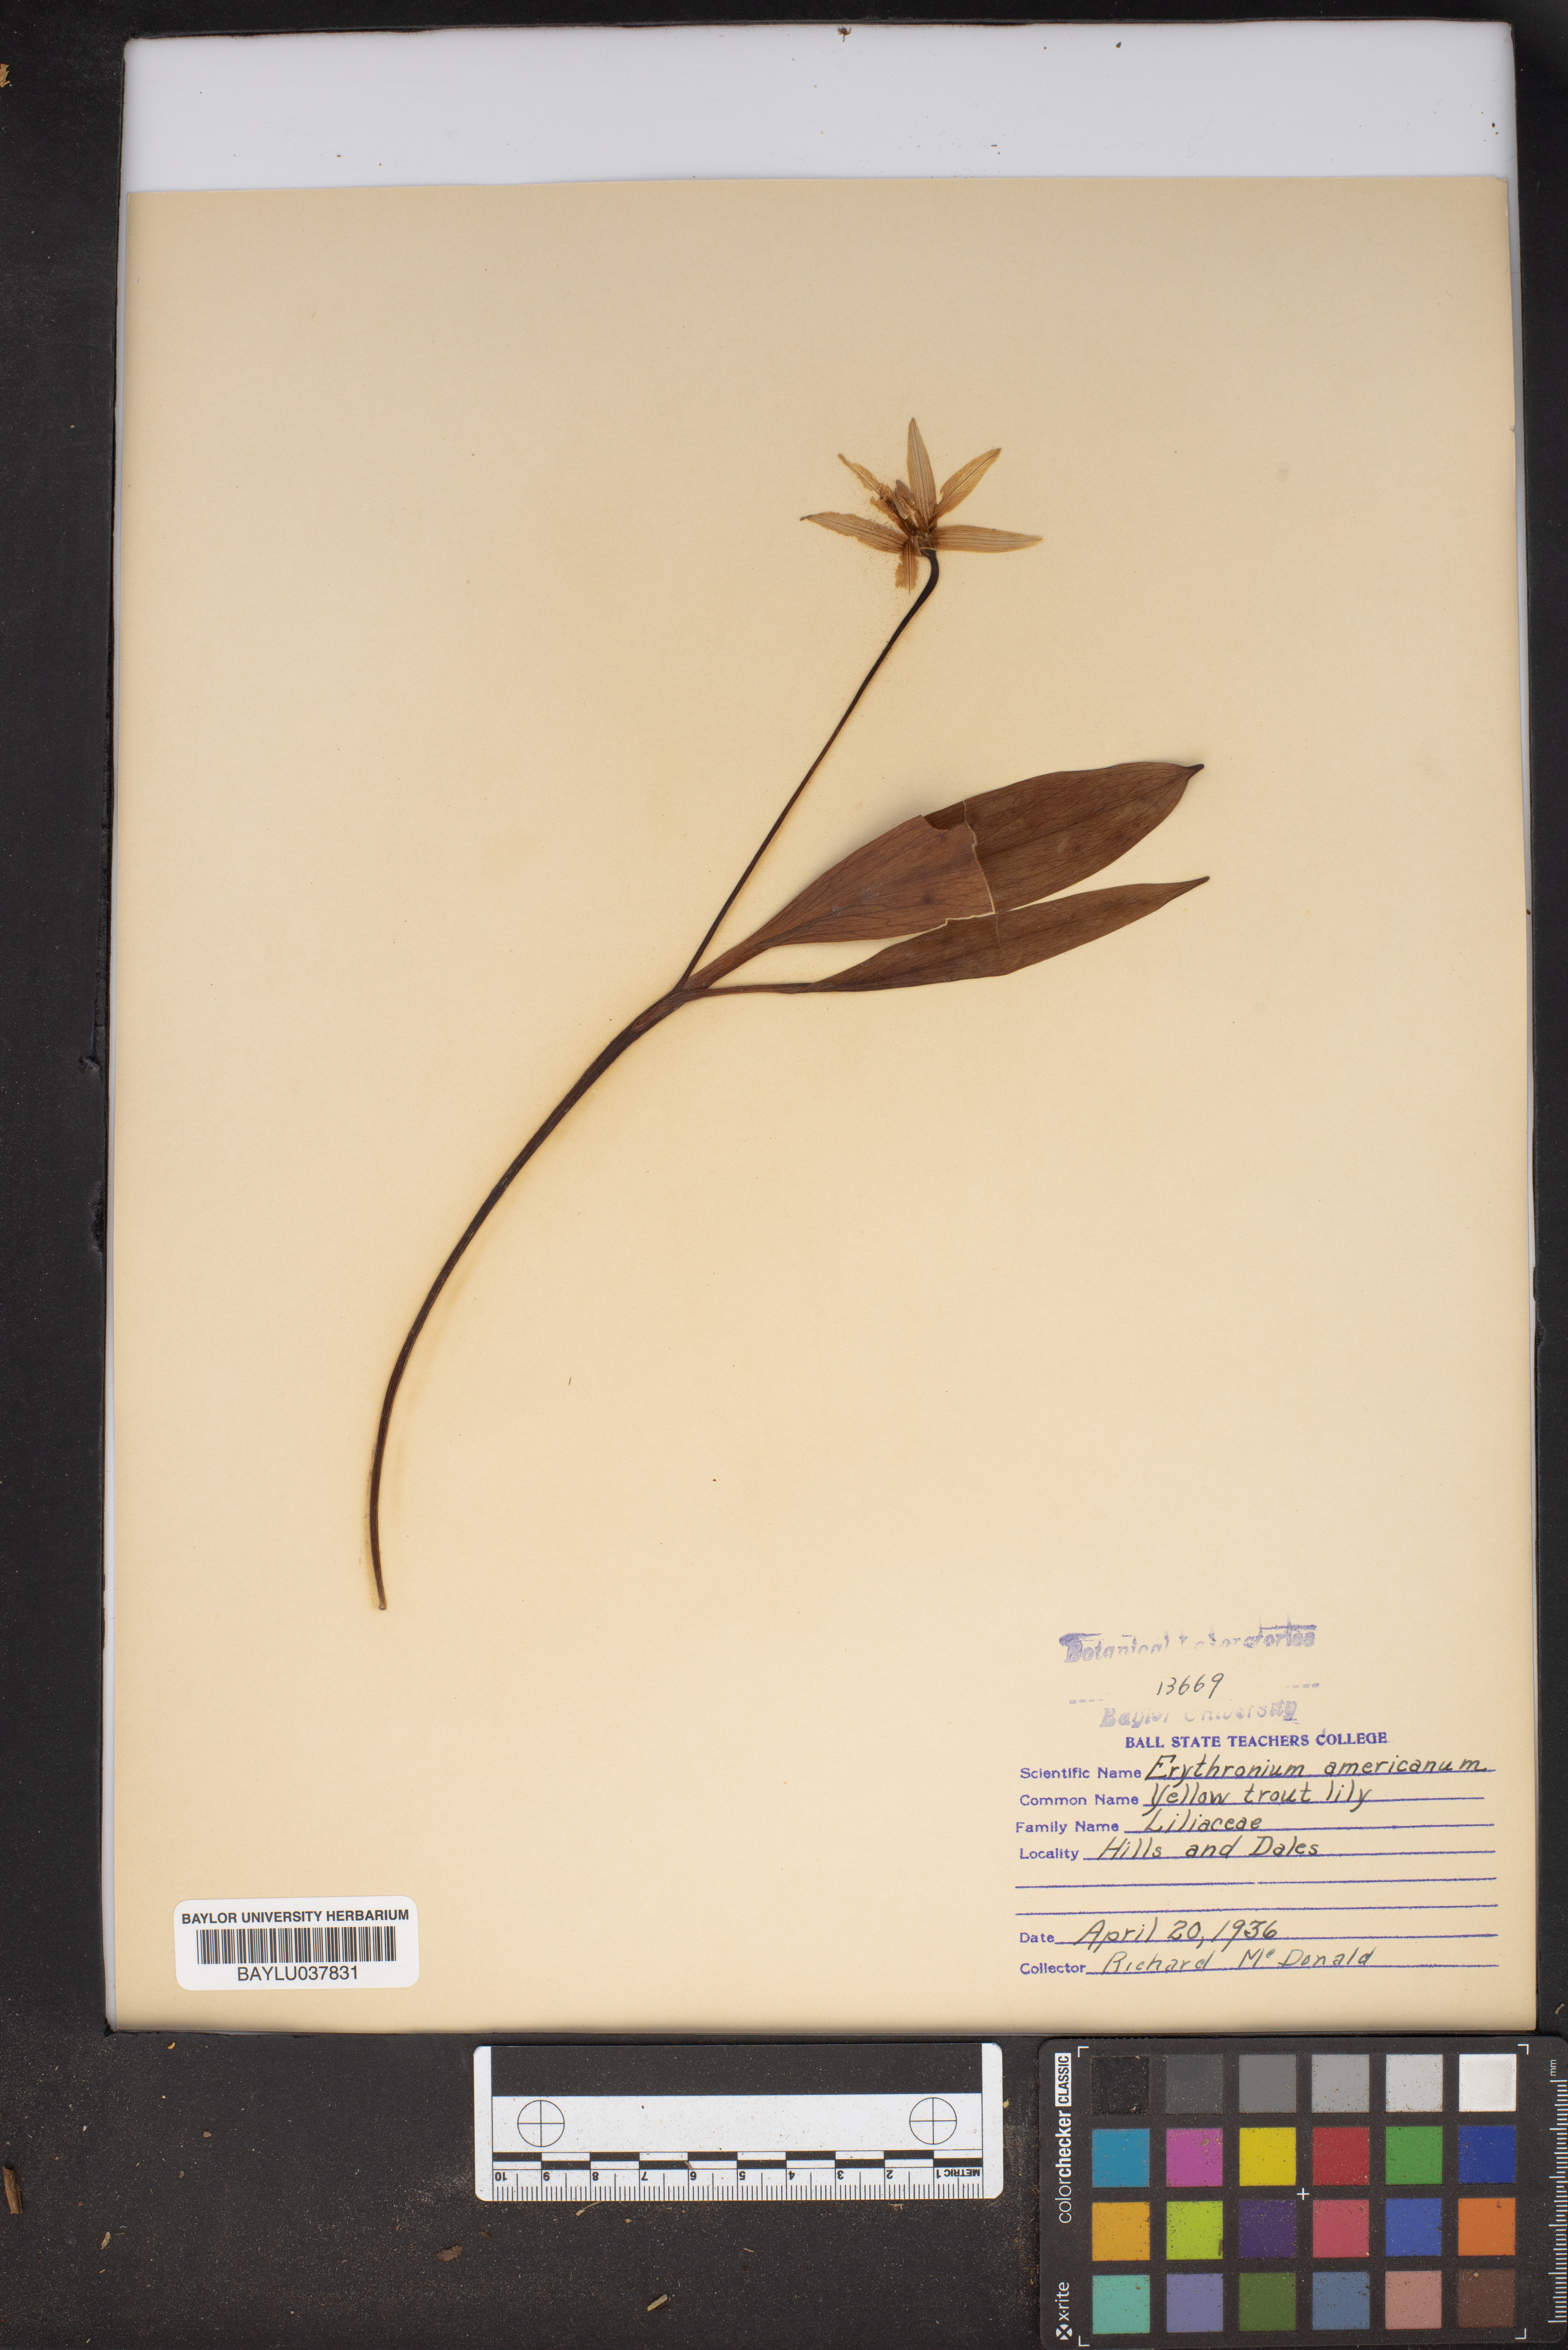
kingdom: Plantae
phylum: Tracheophyta
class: Liliopsida
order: Liliales
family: Liliaceae
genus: Erythronium
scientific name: Erythronium americanum
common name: Yellow adder's-tongue
